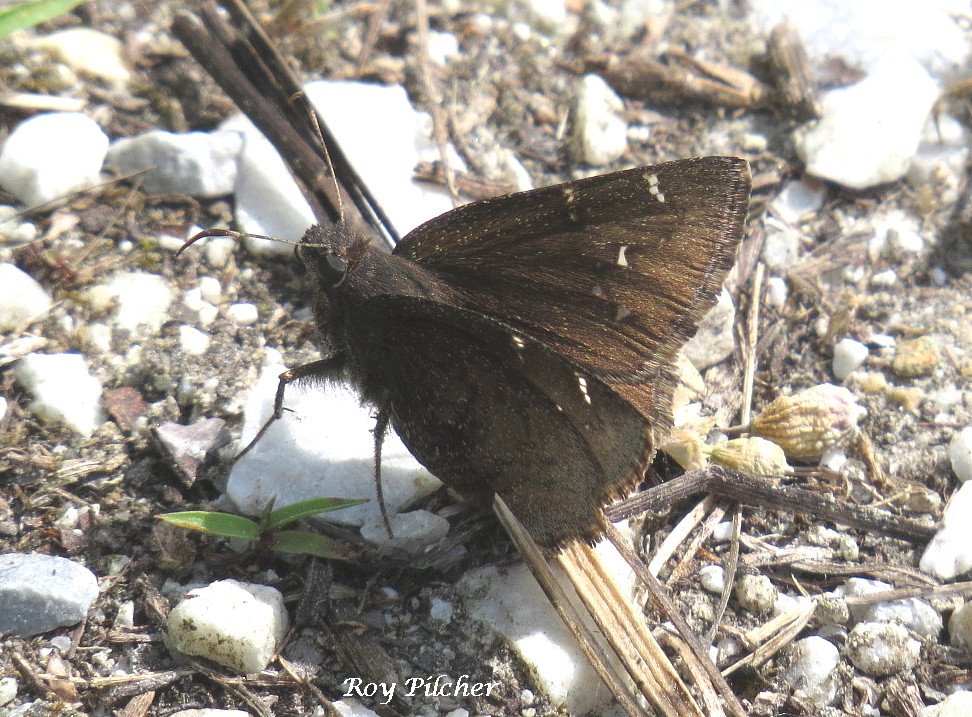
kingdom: Animalia
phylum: Arthropoda
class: Insecta
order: Lepidoptera
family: Hesperiidae
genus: Autochton
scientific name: Autochton
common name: Northern Cloudywing
